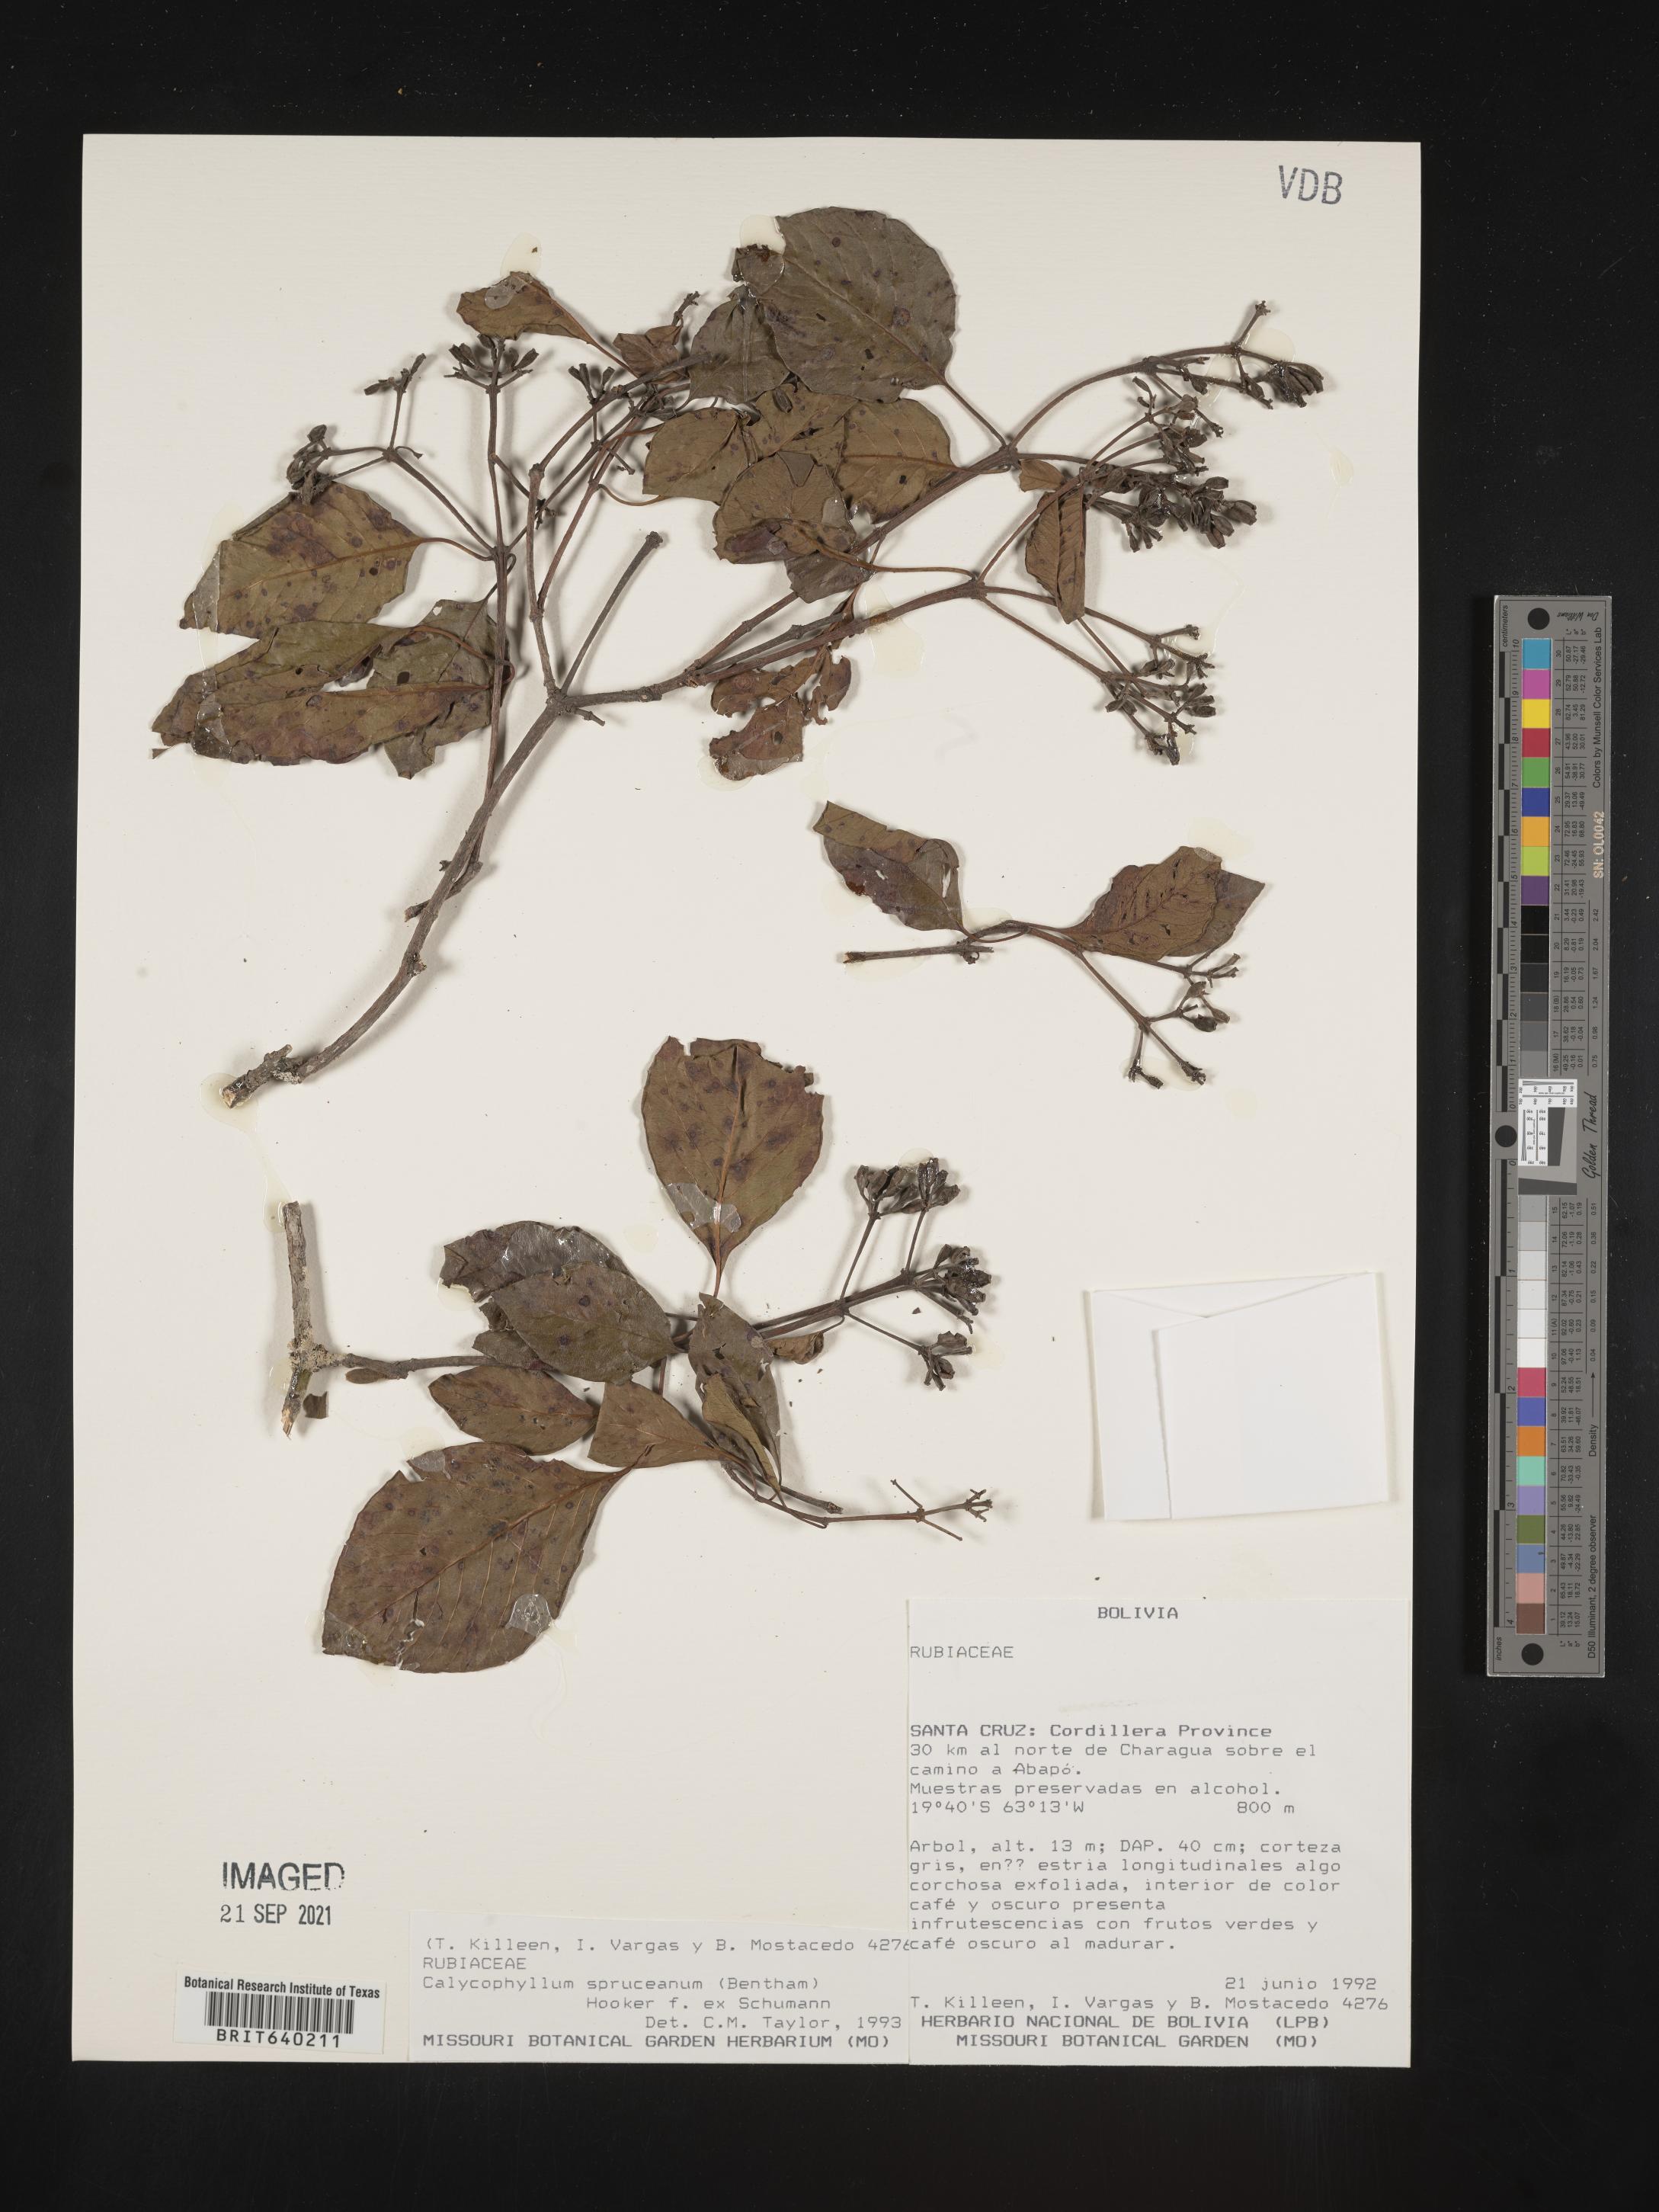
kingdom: Plantae
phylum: Tracheophyta
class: Magnoliopsida
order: Gentianales
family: Rubiaceae
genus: Calycophyllum
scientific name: Calycophyllum
